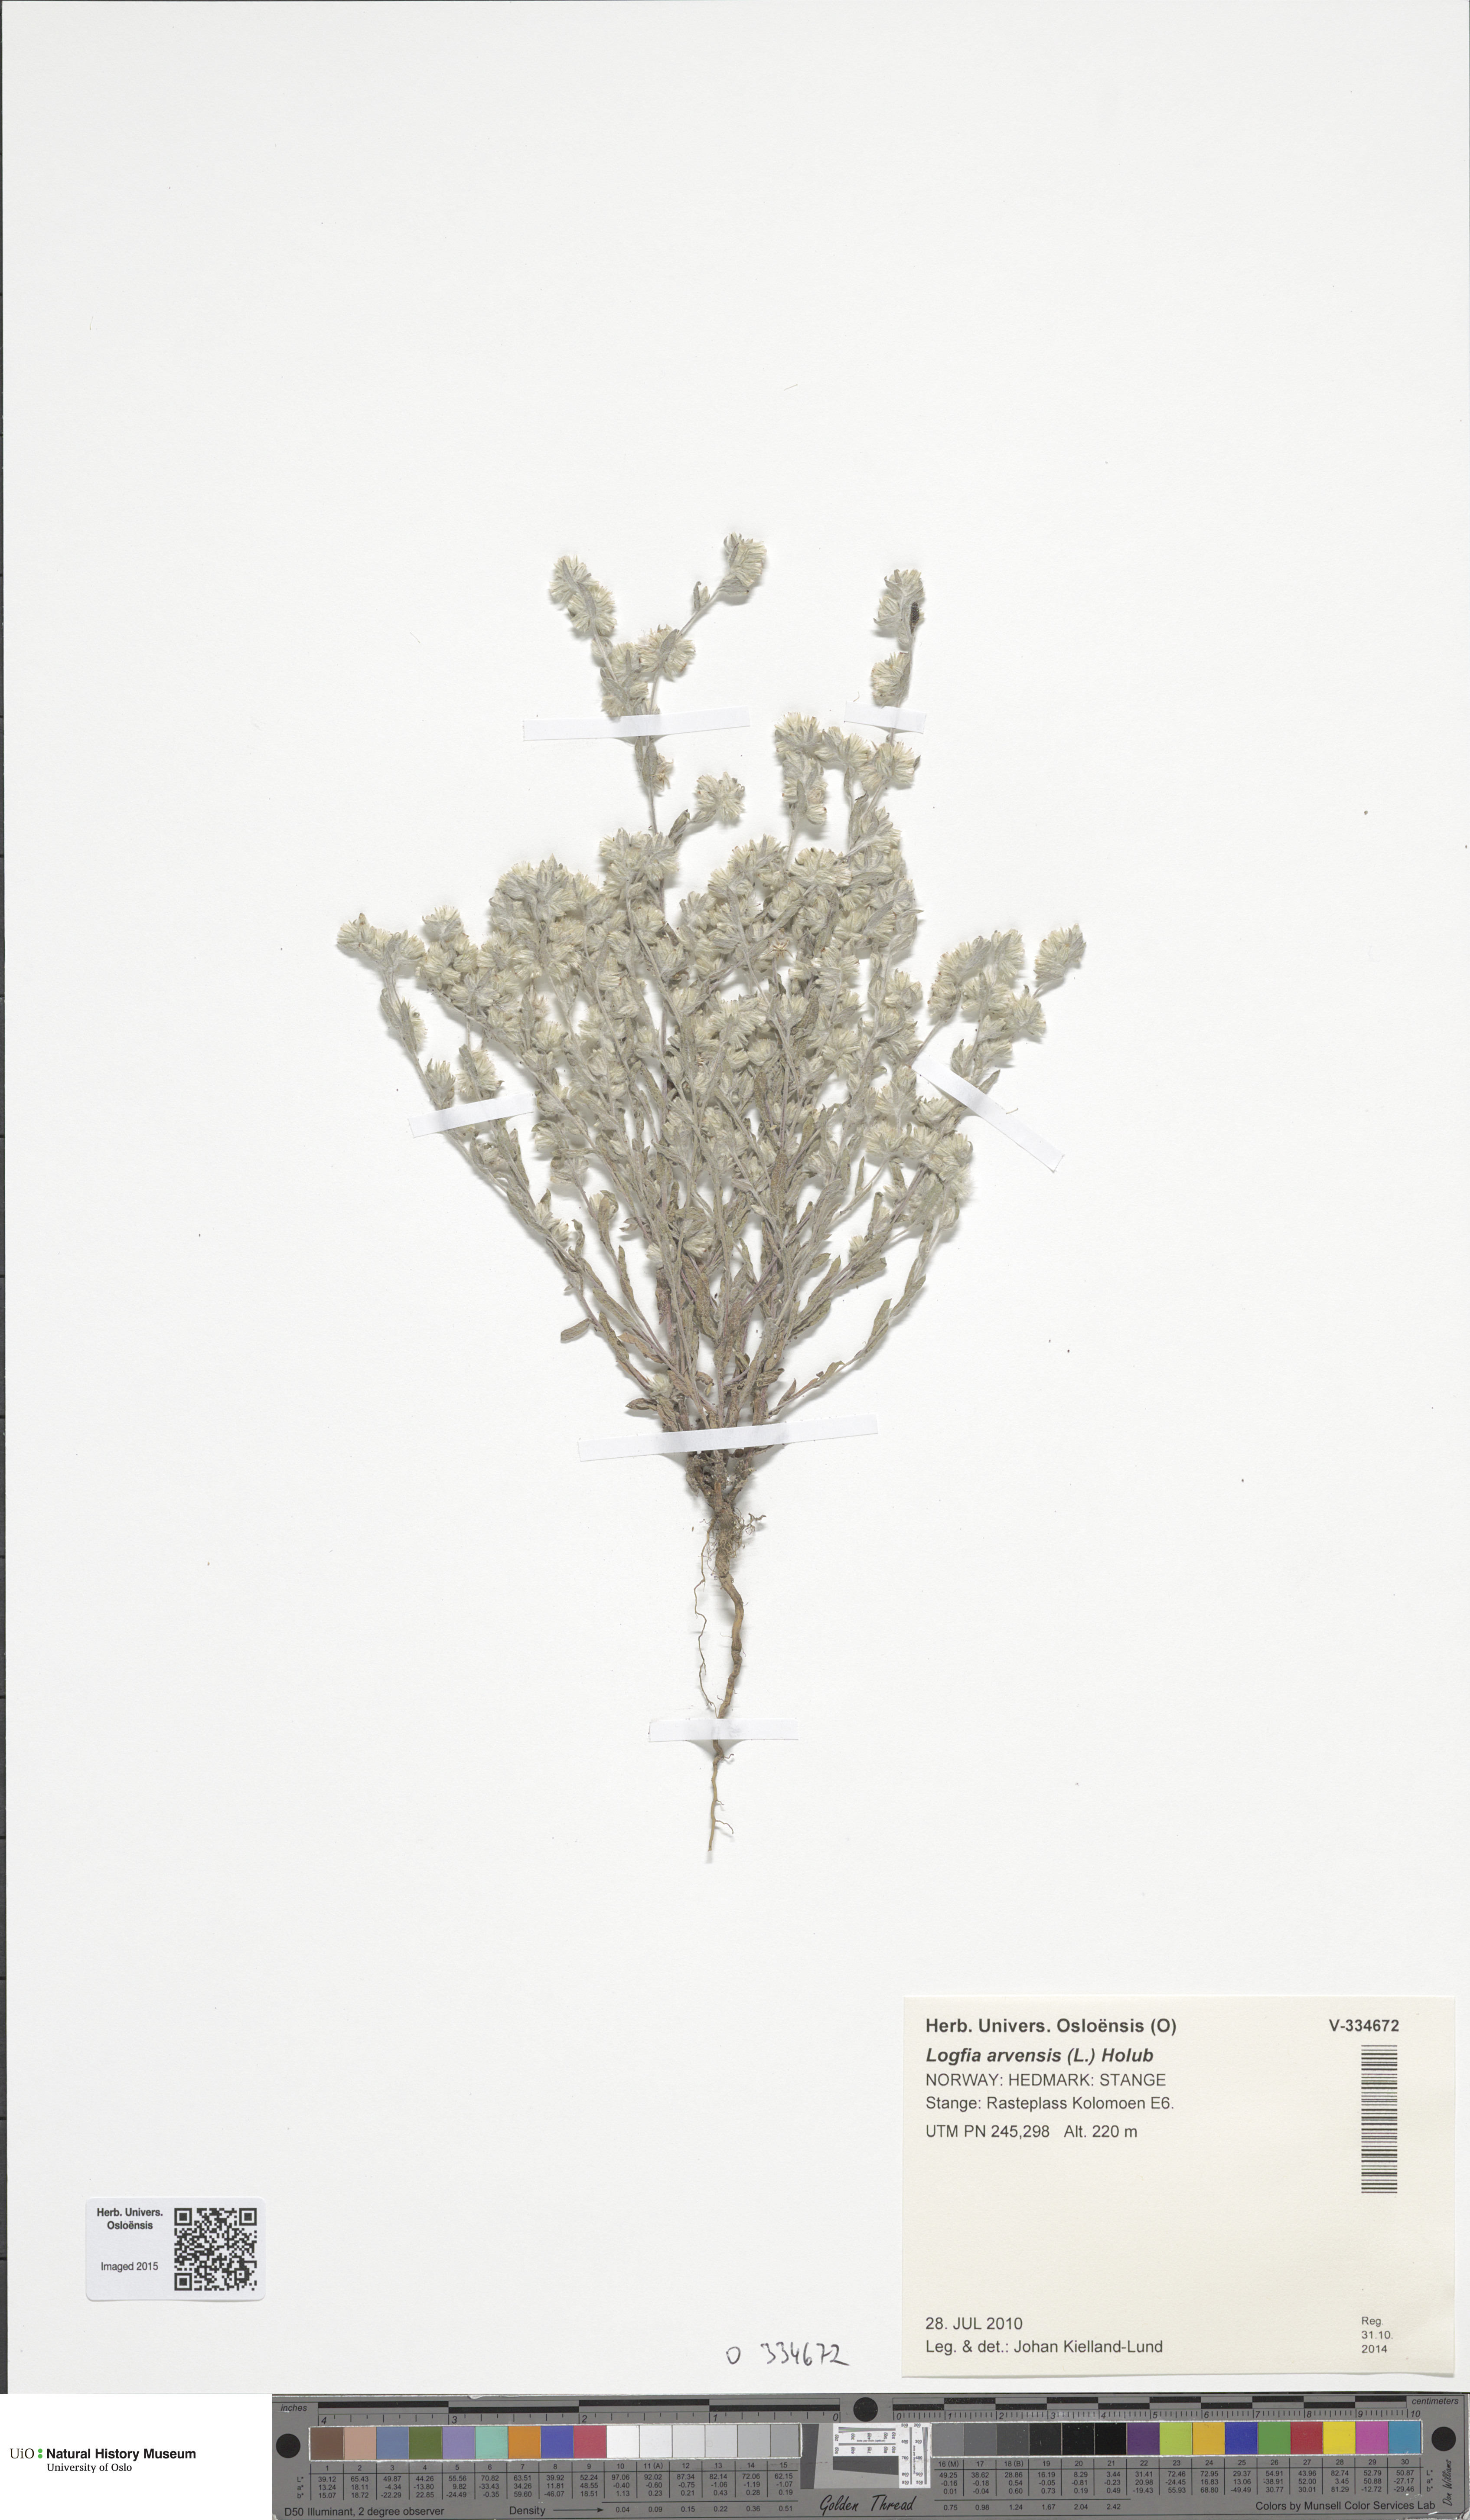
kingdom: Plantae
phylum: Tracheophyta
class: Magnoliopsida
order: Asterales
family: Asteraceae
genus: Filago
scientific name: Filago arvensis
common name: Field cudweed
